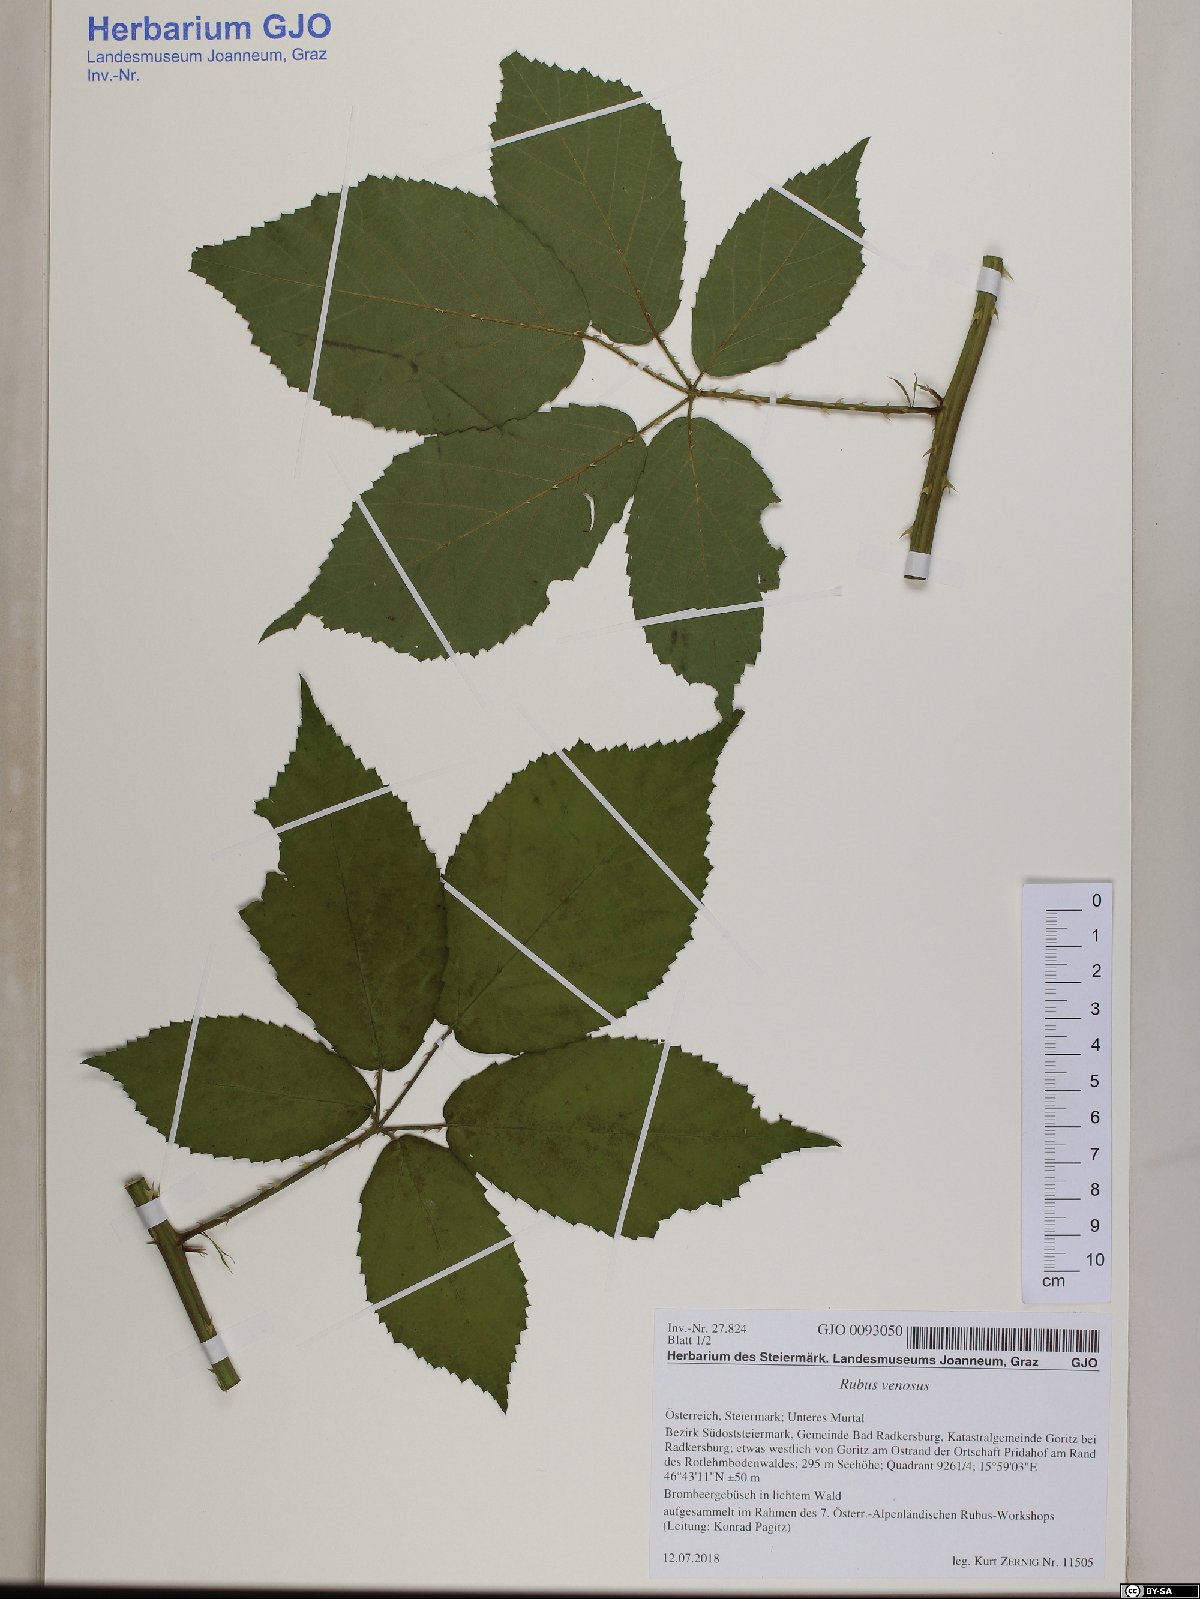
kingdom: Plantae
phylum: Tracheophyta
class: Magnoliopsida
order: Rosales
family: Rosaceae
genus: Rubus
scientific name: Rubus venosus
